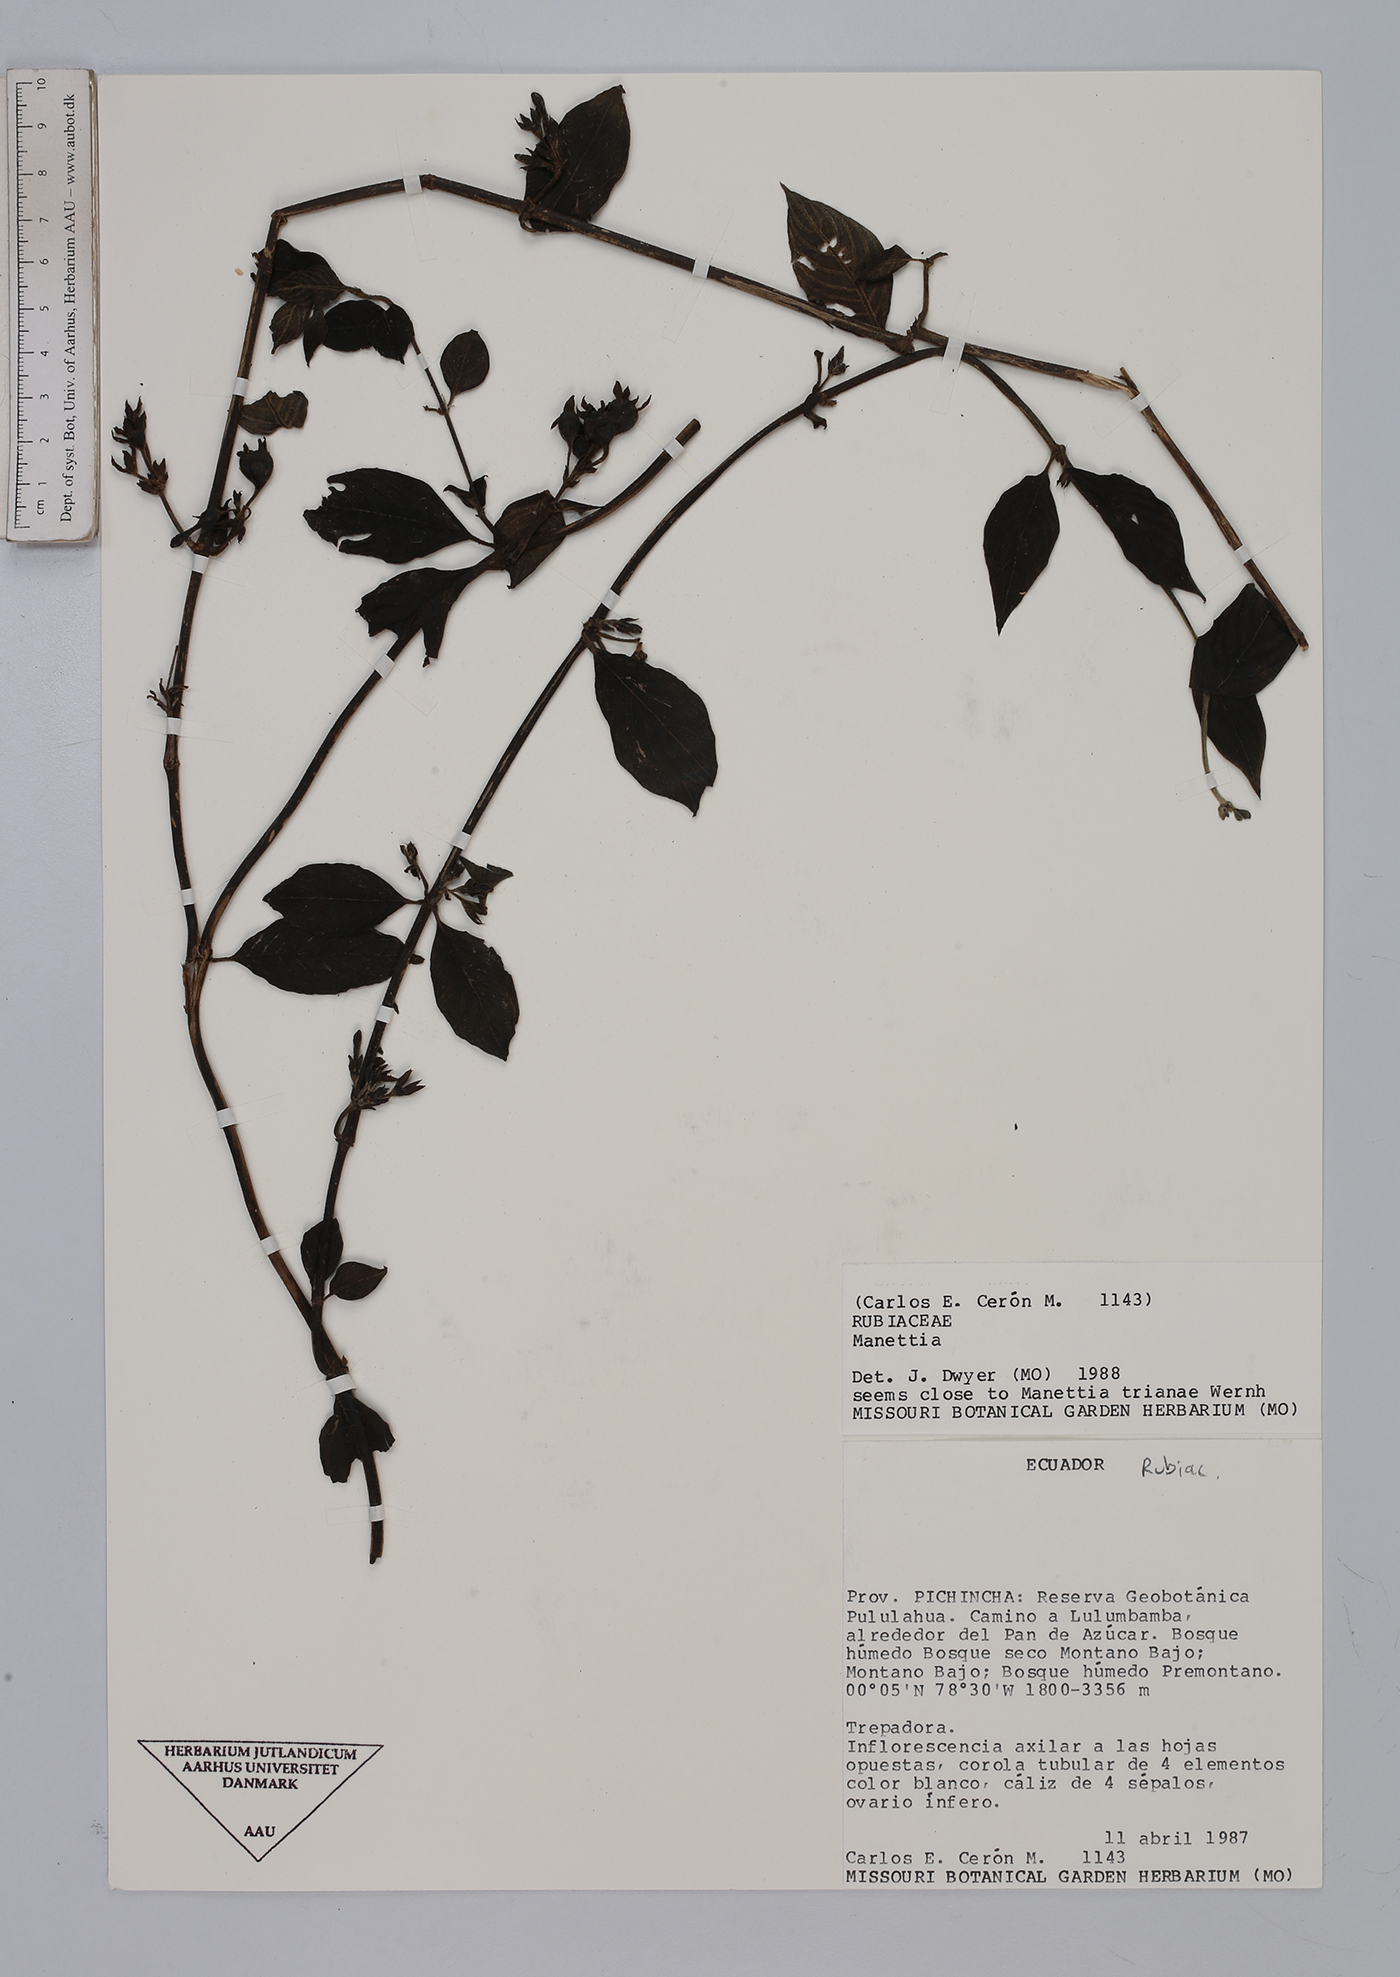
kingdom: Plantae
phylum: Tracheophyta
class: Magnoliopsida
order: Gentianales
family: Rubiaceae
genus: Manettia
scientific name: Manettia
